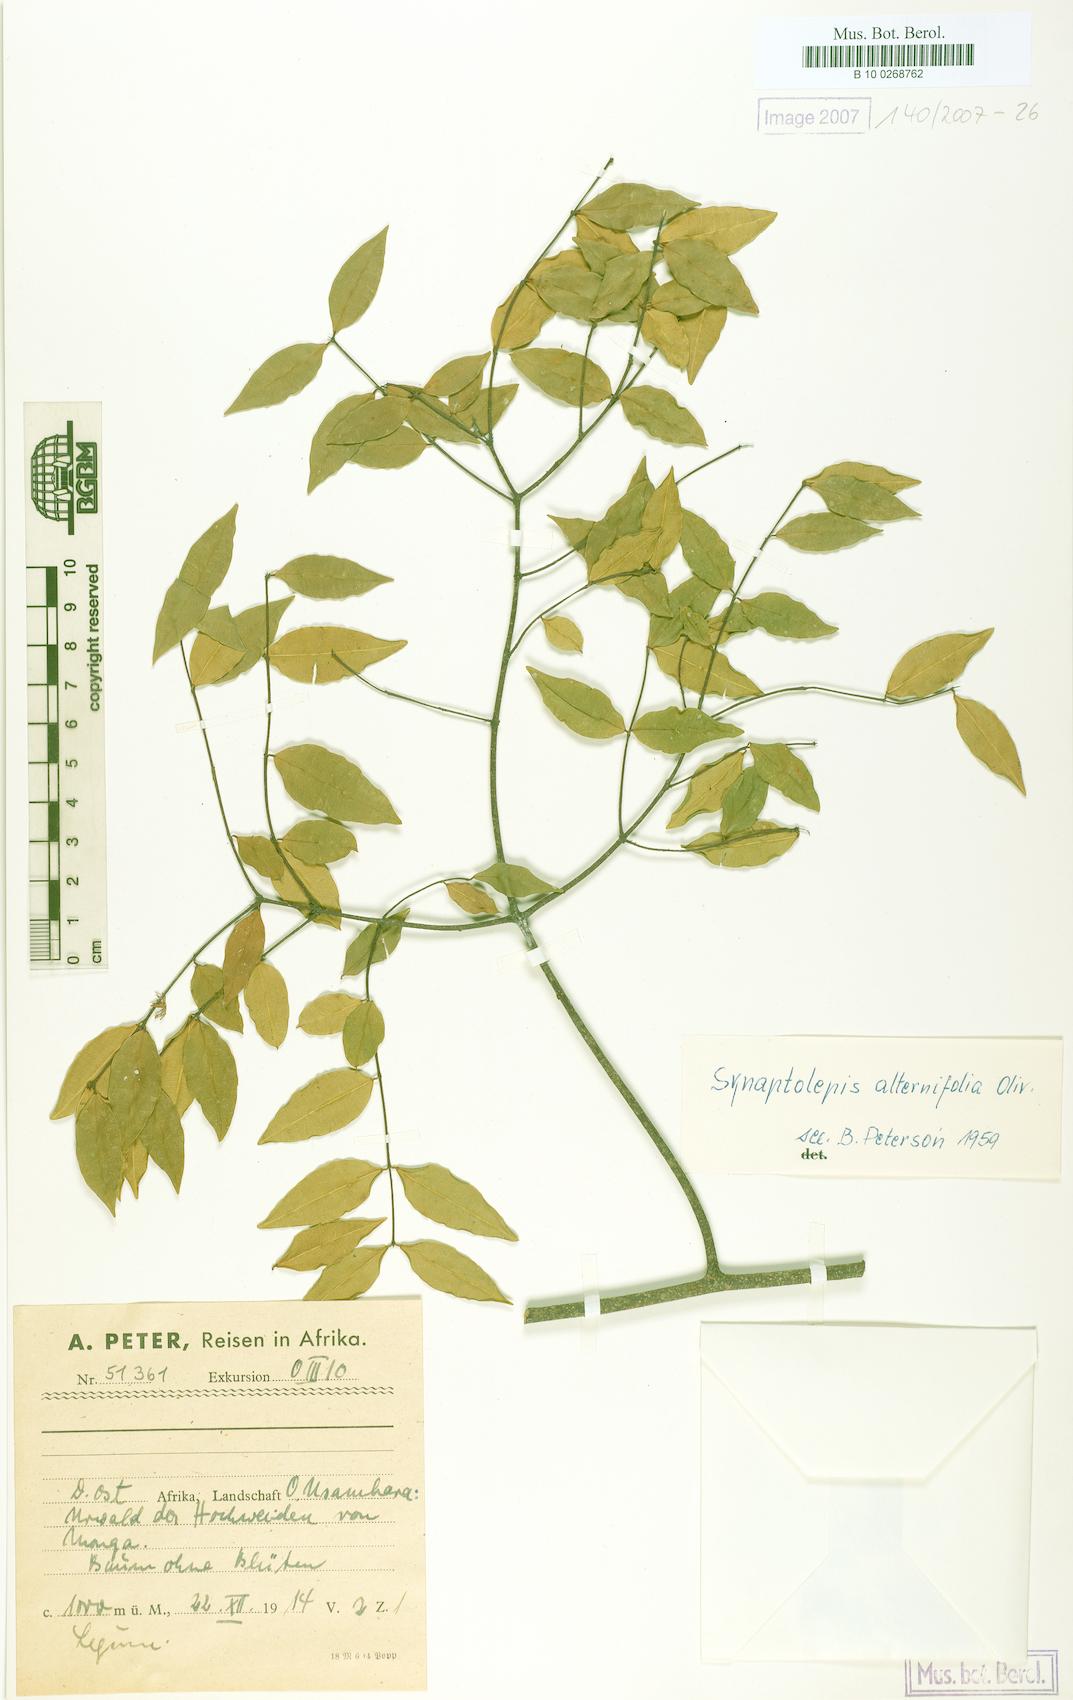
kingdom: Plantae
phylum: Tracheophyta
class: Magnoliopsida
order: Malvales
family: Thymelaeaceae
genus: Synaptolepis
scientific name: Synaptolepis alternifolia
